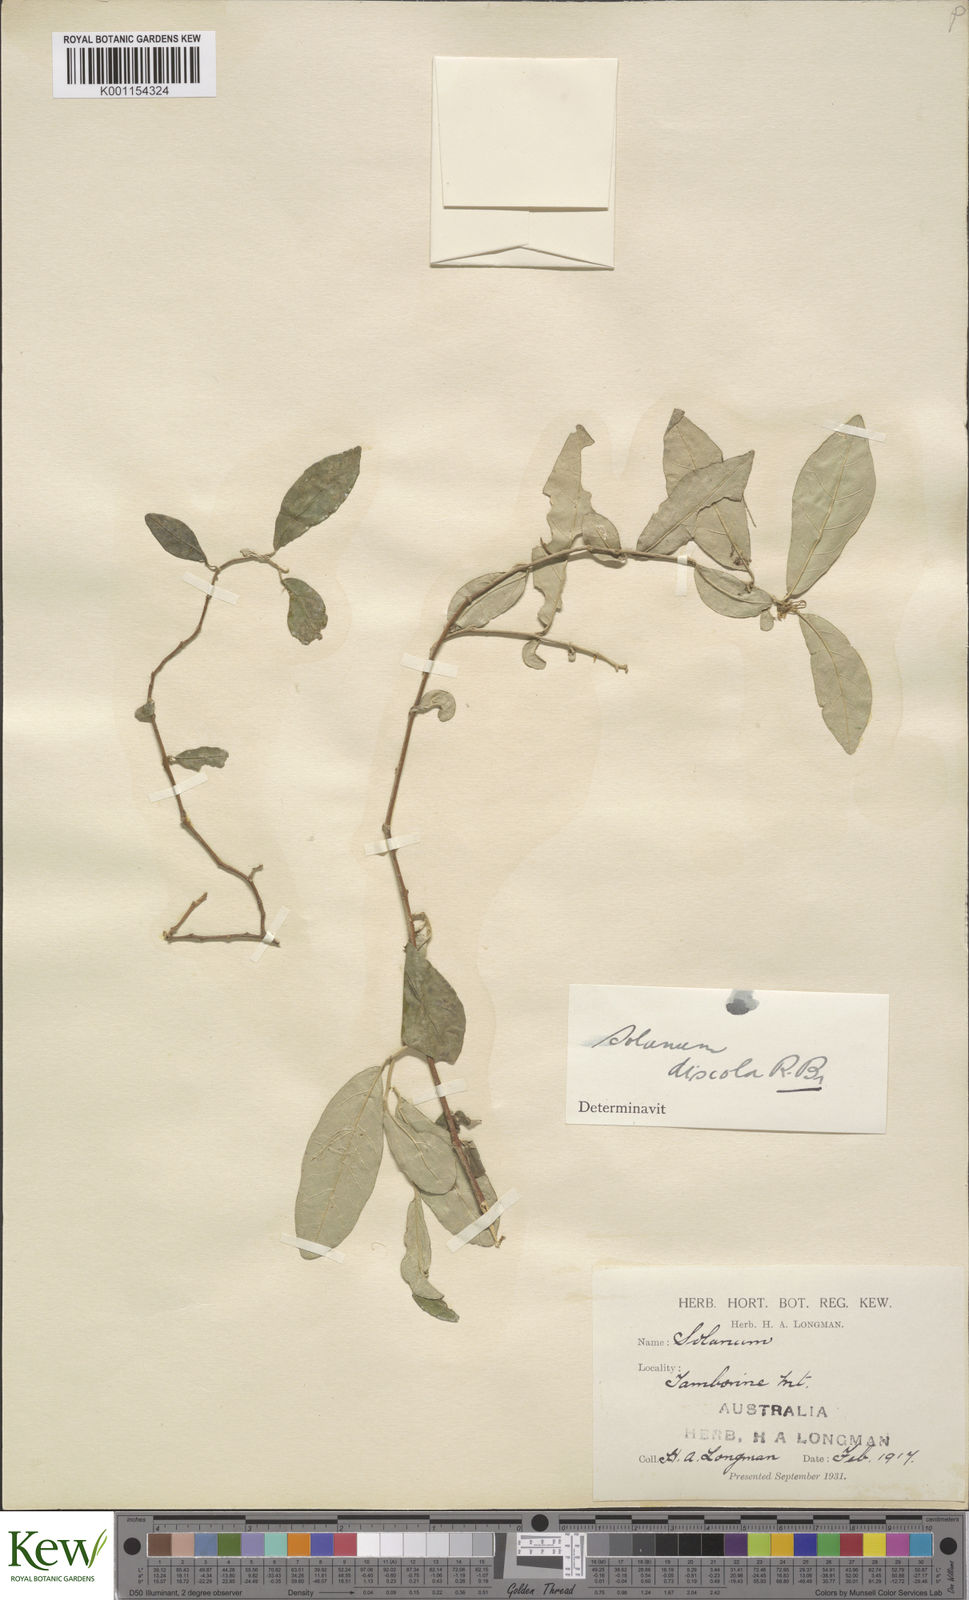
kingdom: Plantae
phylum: Tracheophyta
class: Magnoliopsida
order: Solanales
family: Solanaceae
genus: Solanum
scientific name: Solanum ferocissimum
